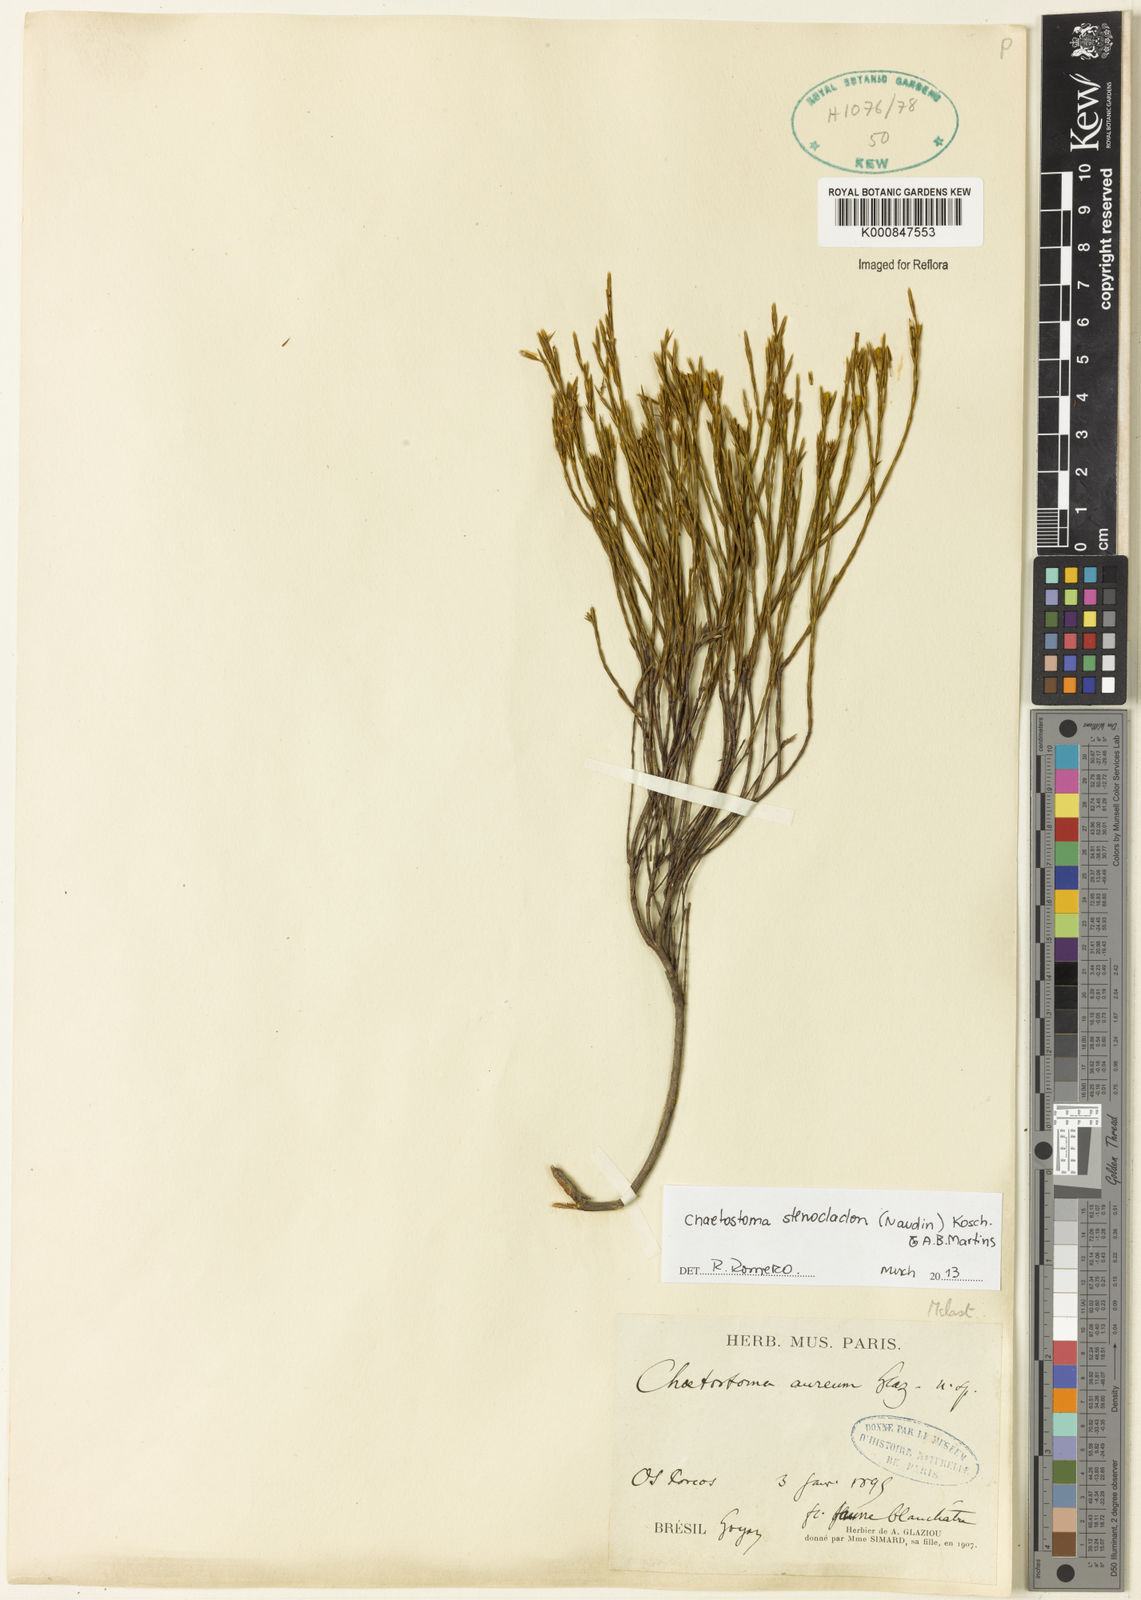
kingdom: Plantae
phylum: Tracheophyta
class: Magnoliopsida
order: Myrtales
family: Melastomataceae
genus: Microlicia
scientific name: Microlicia stenocladon
